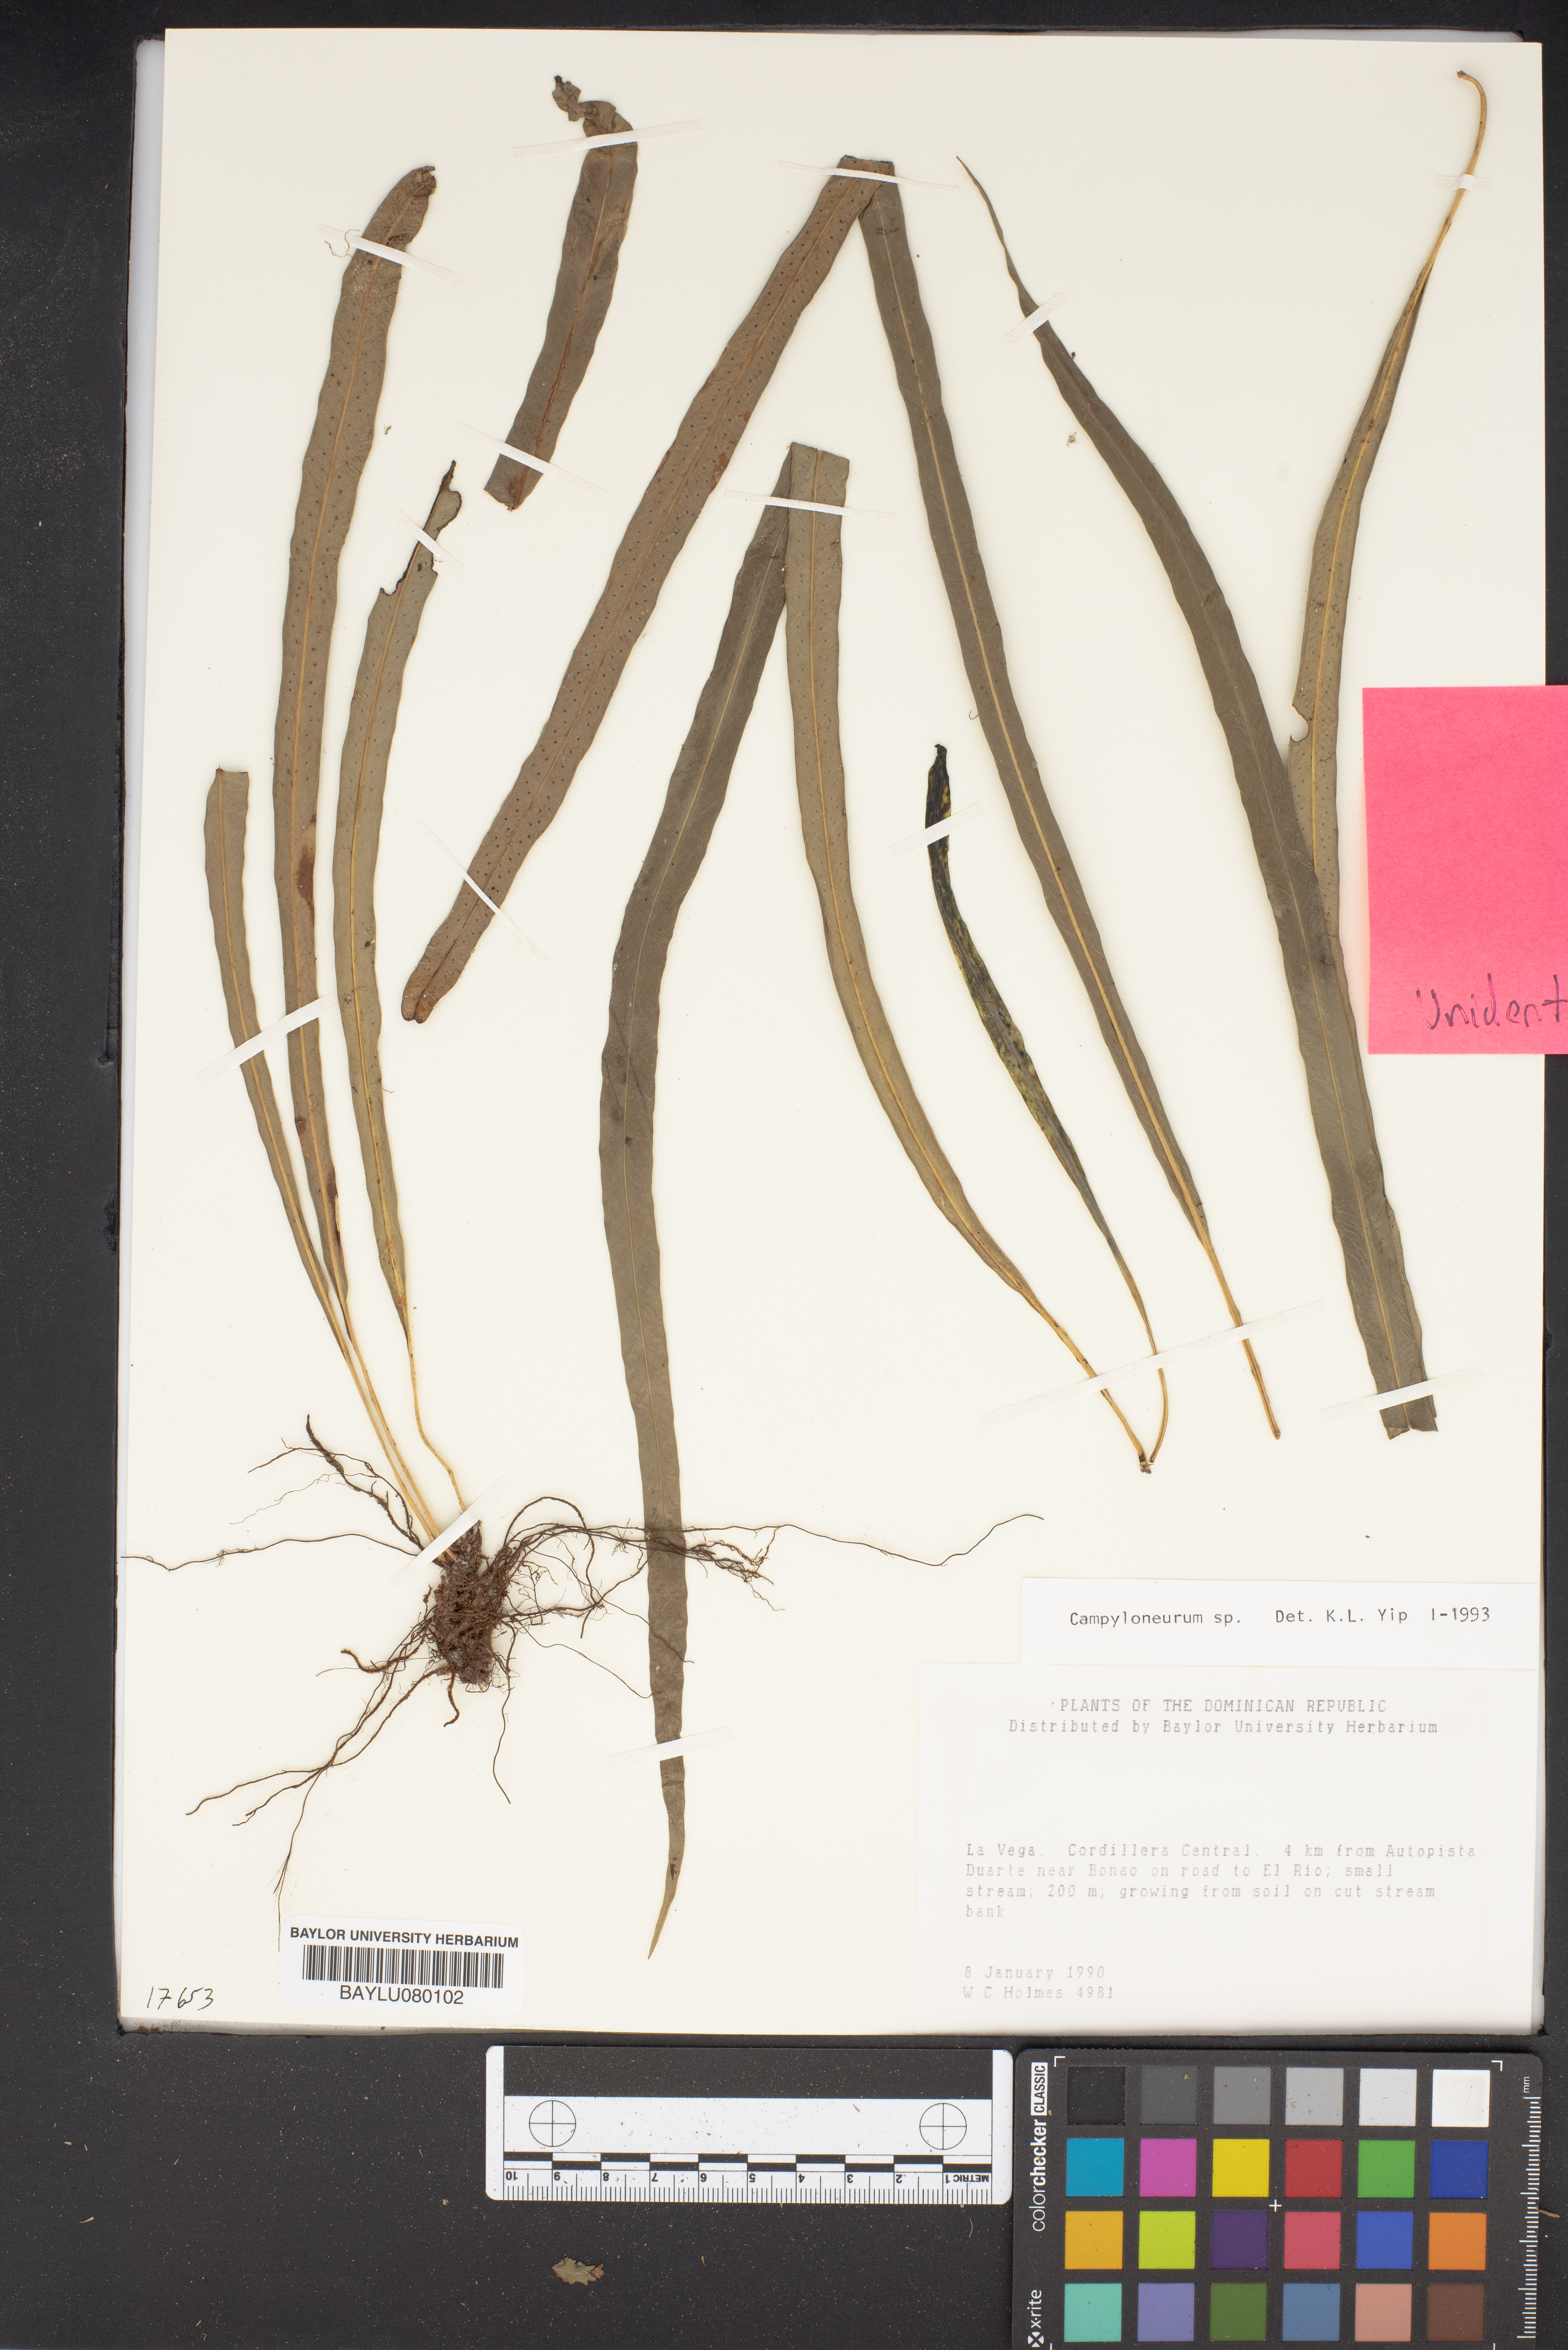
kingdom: Plantae
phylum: Tracheophyta
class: Polypodiopsida
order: Polypodiales
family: Polypodiaceae
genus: Campyloneurum
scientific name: Campyloneurum sphenodes
